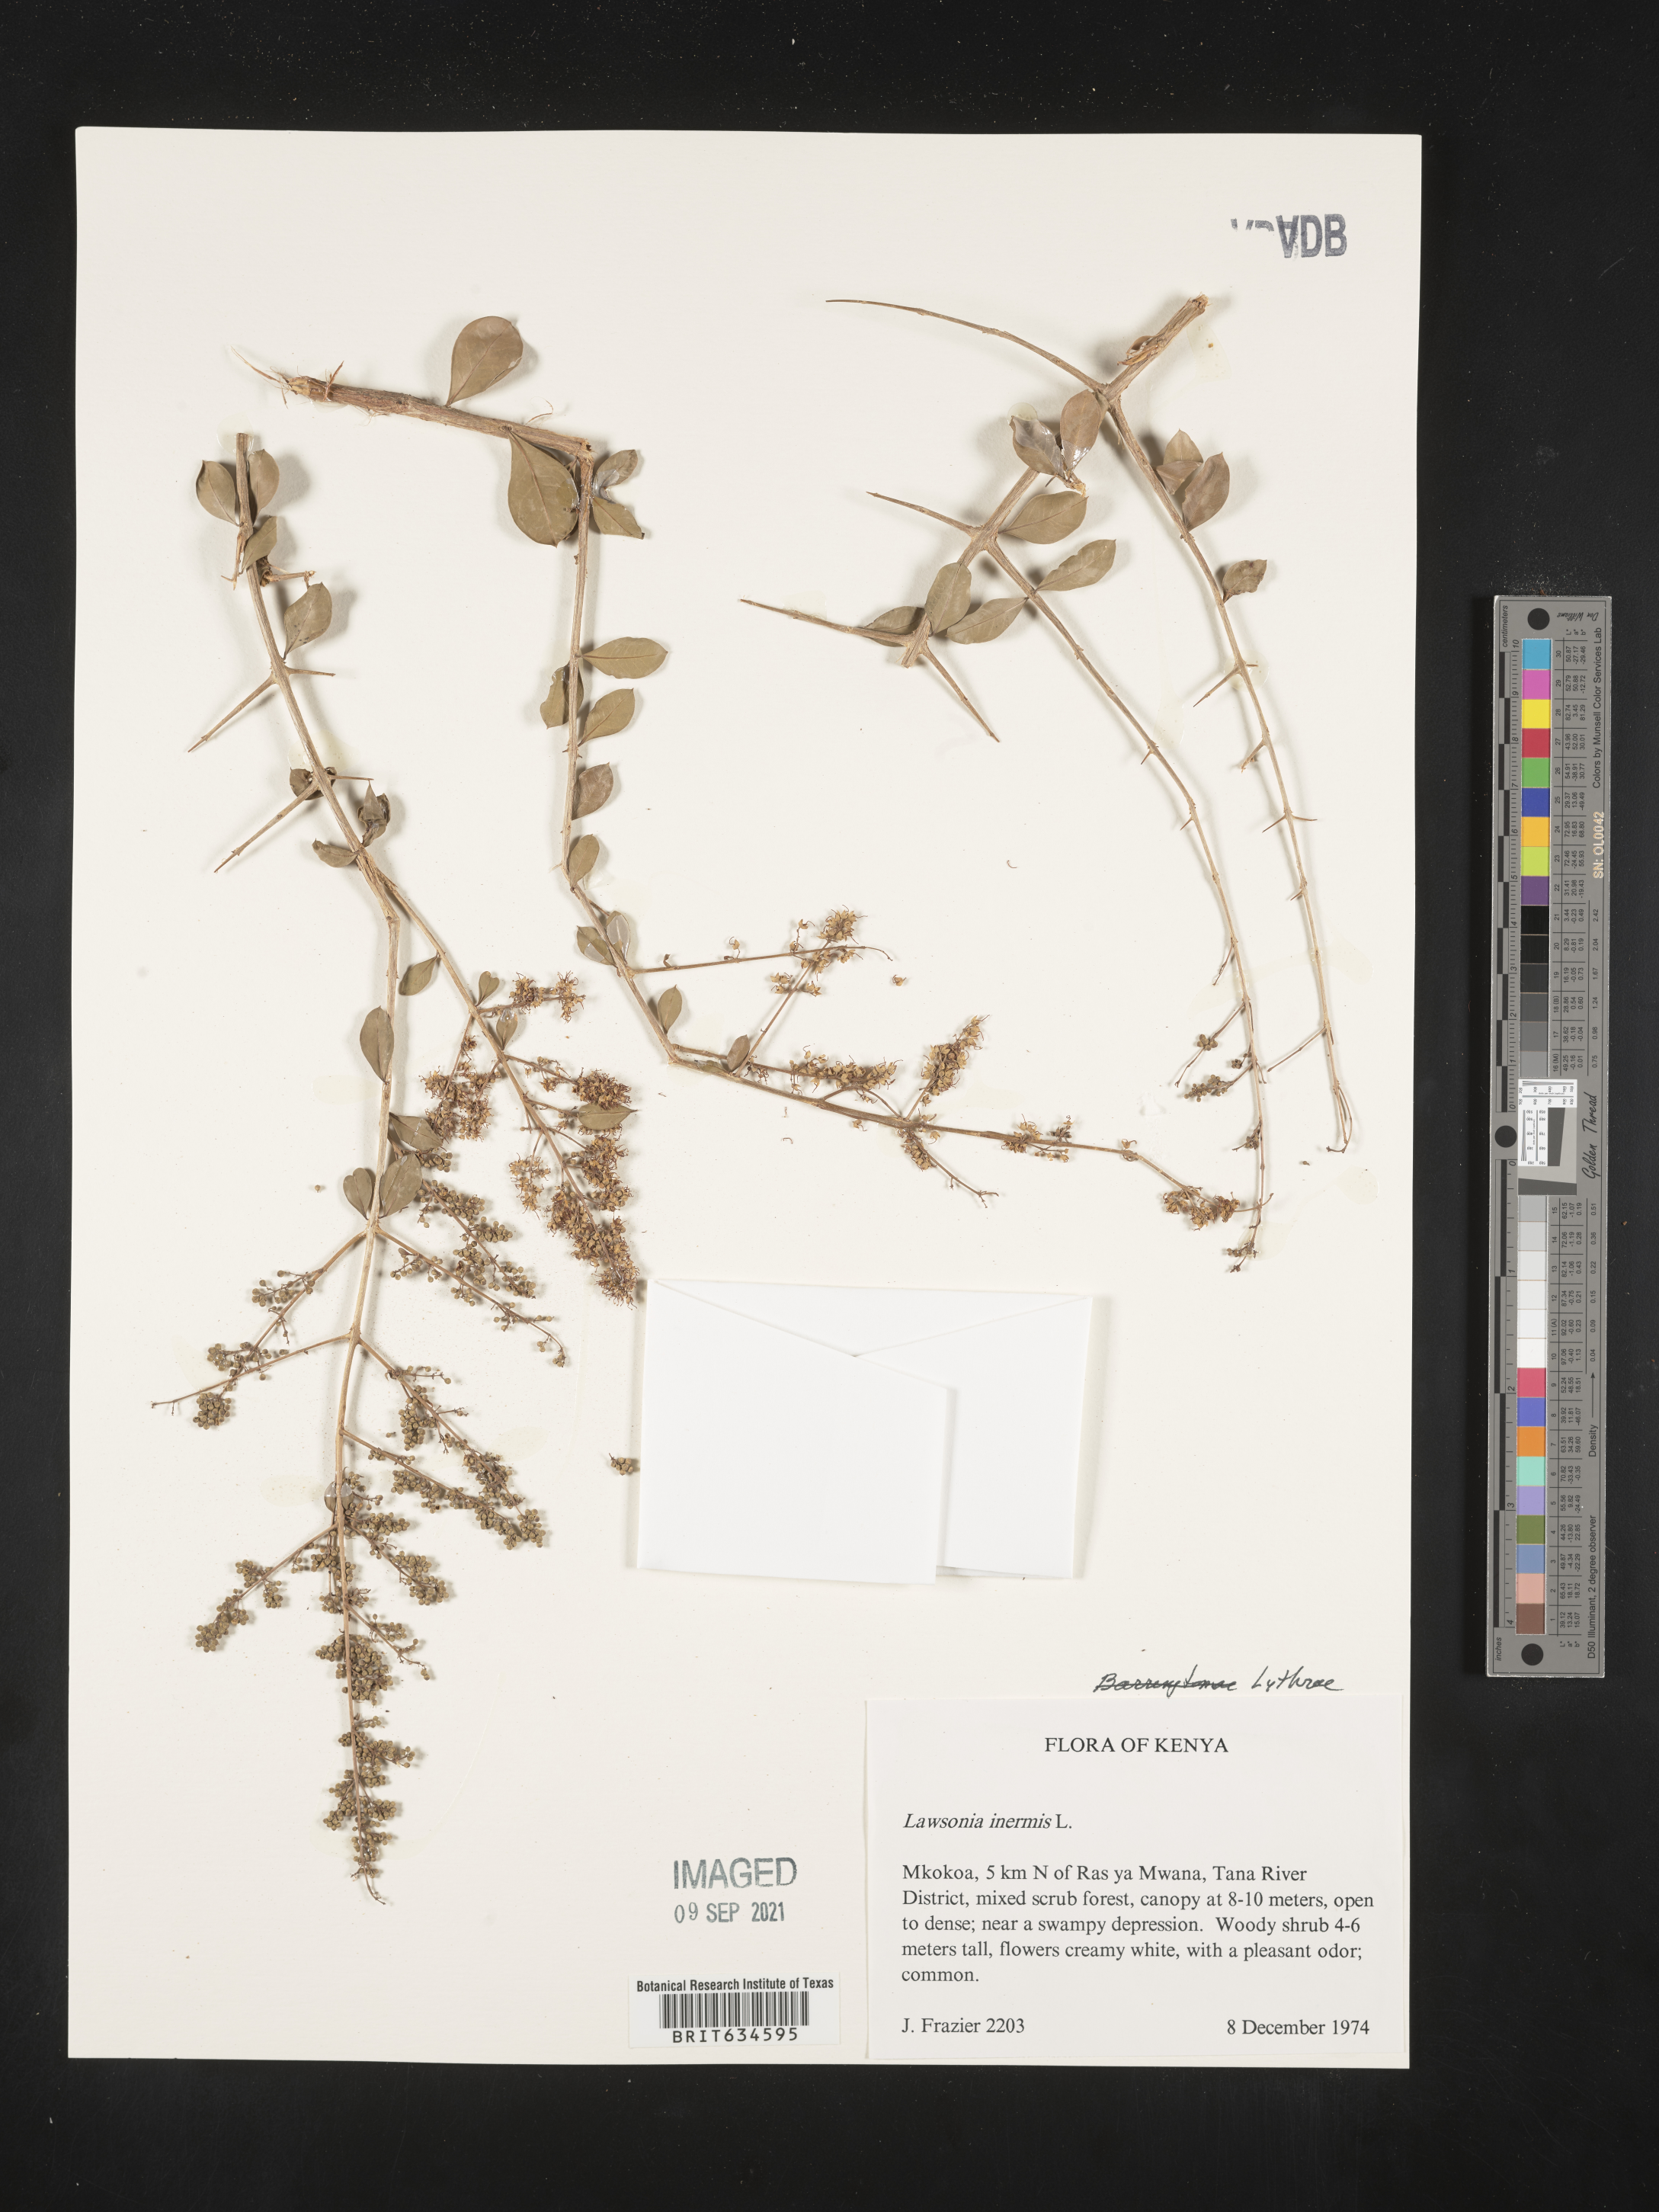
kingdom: Plantae
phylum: Tracheophyta
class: Magnoliopsida
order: Myrtales
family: Lythraceae
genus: Lawsonia
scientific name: Lawsonia
